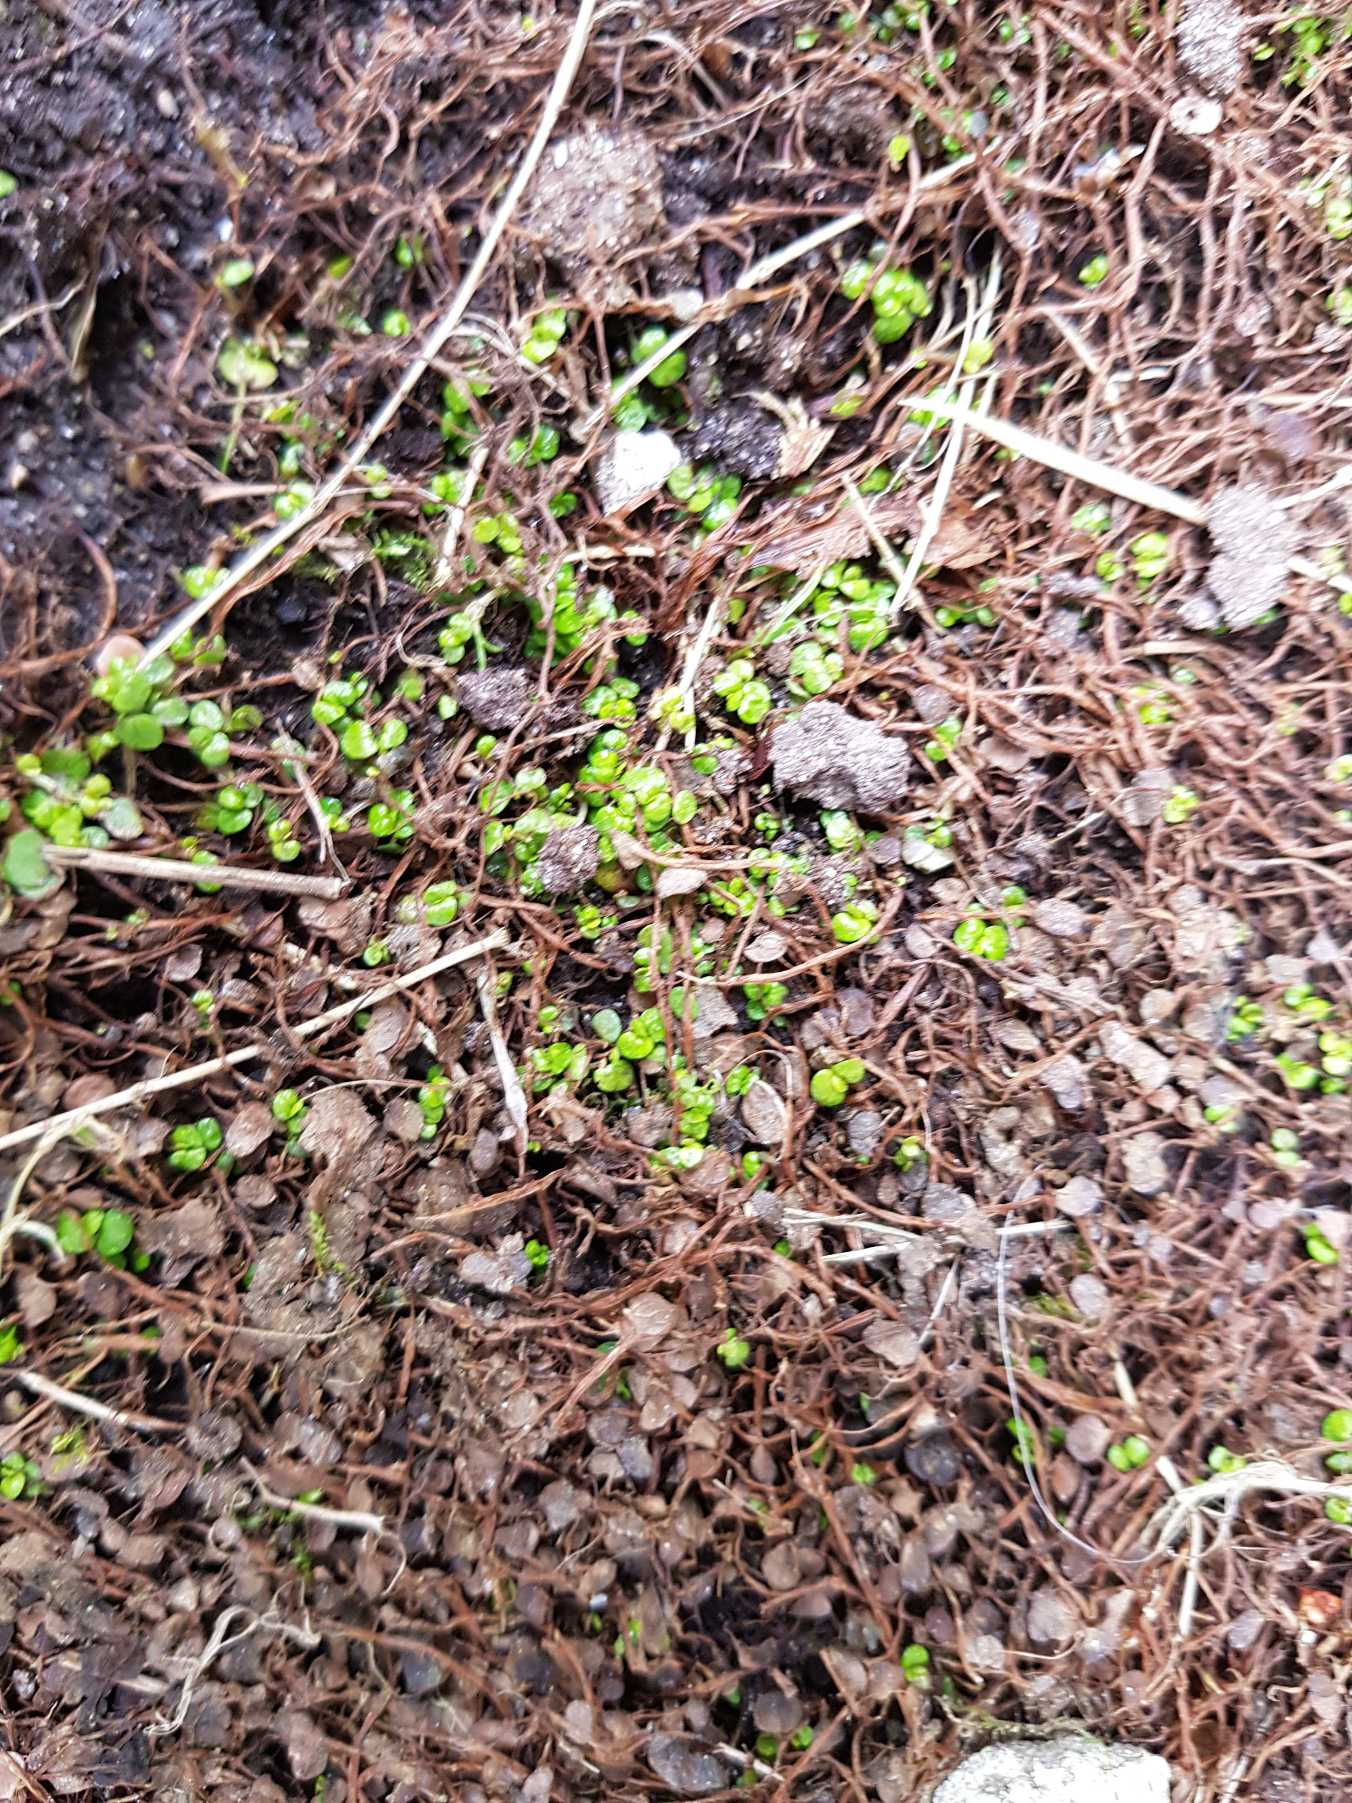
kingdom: Plantae
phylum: Tracheophyta
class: Magnoliopsida
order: Rosales
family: Urticaceae
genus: Soleirolia
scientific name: Soleirolia soleirolii
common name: Husfred
